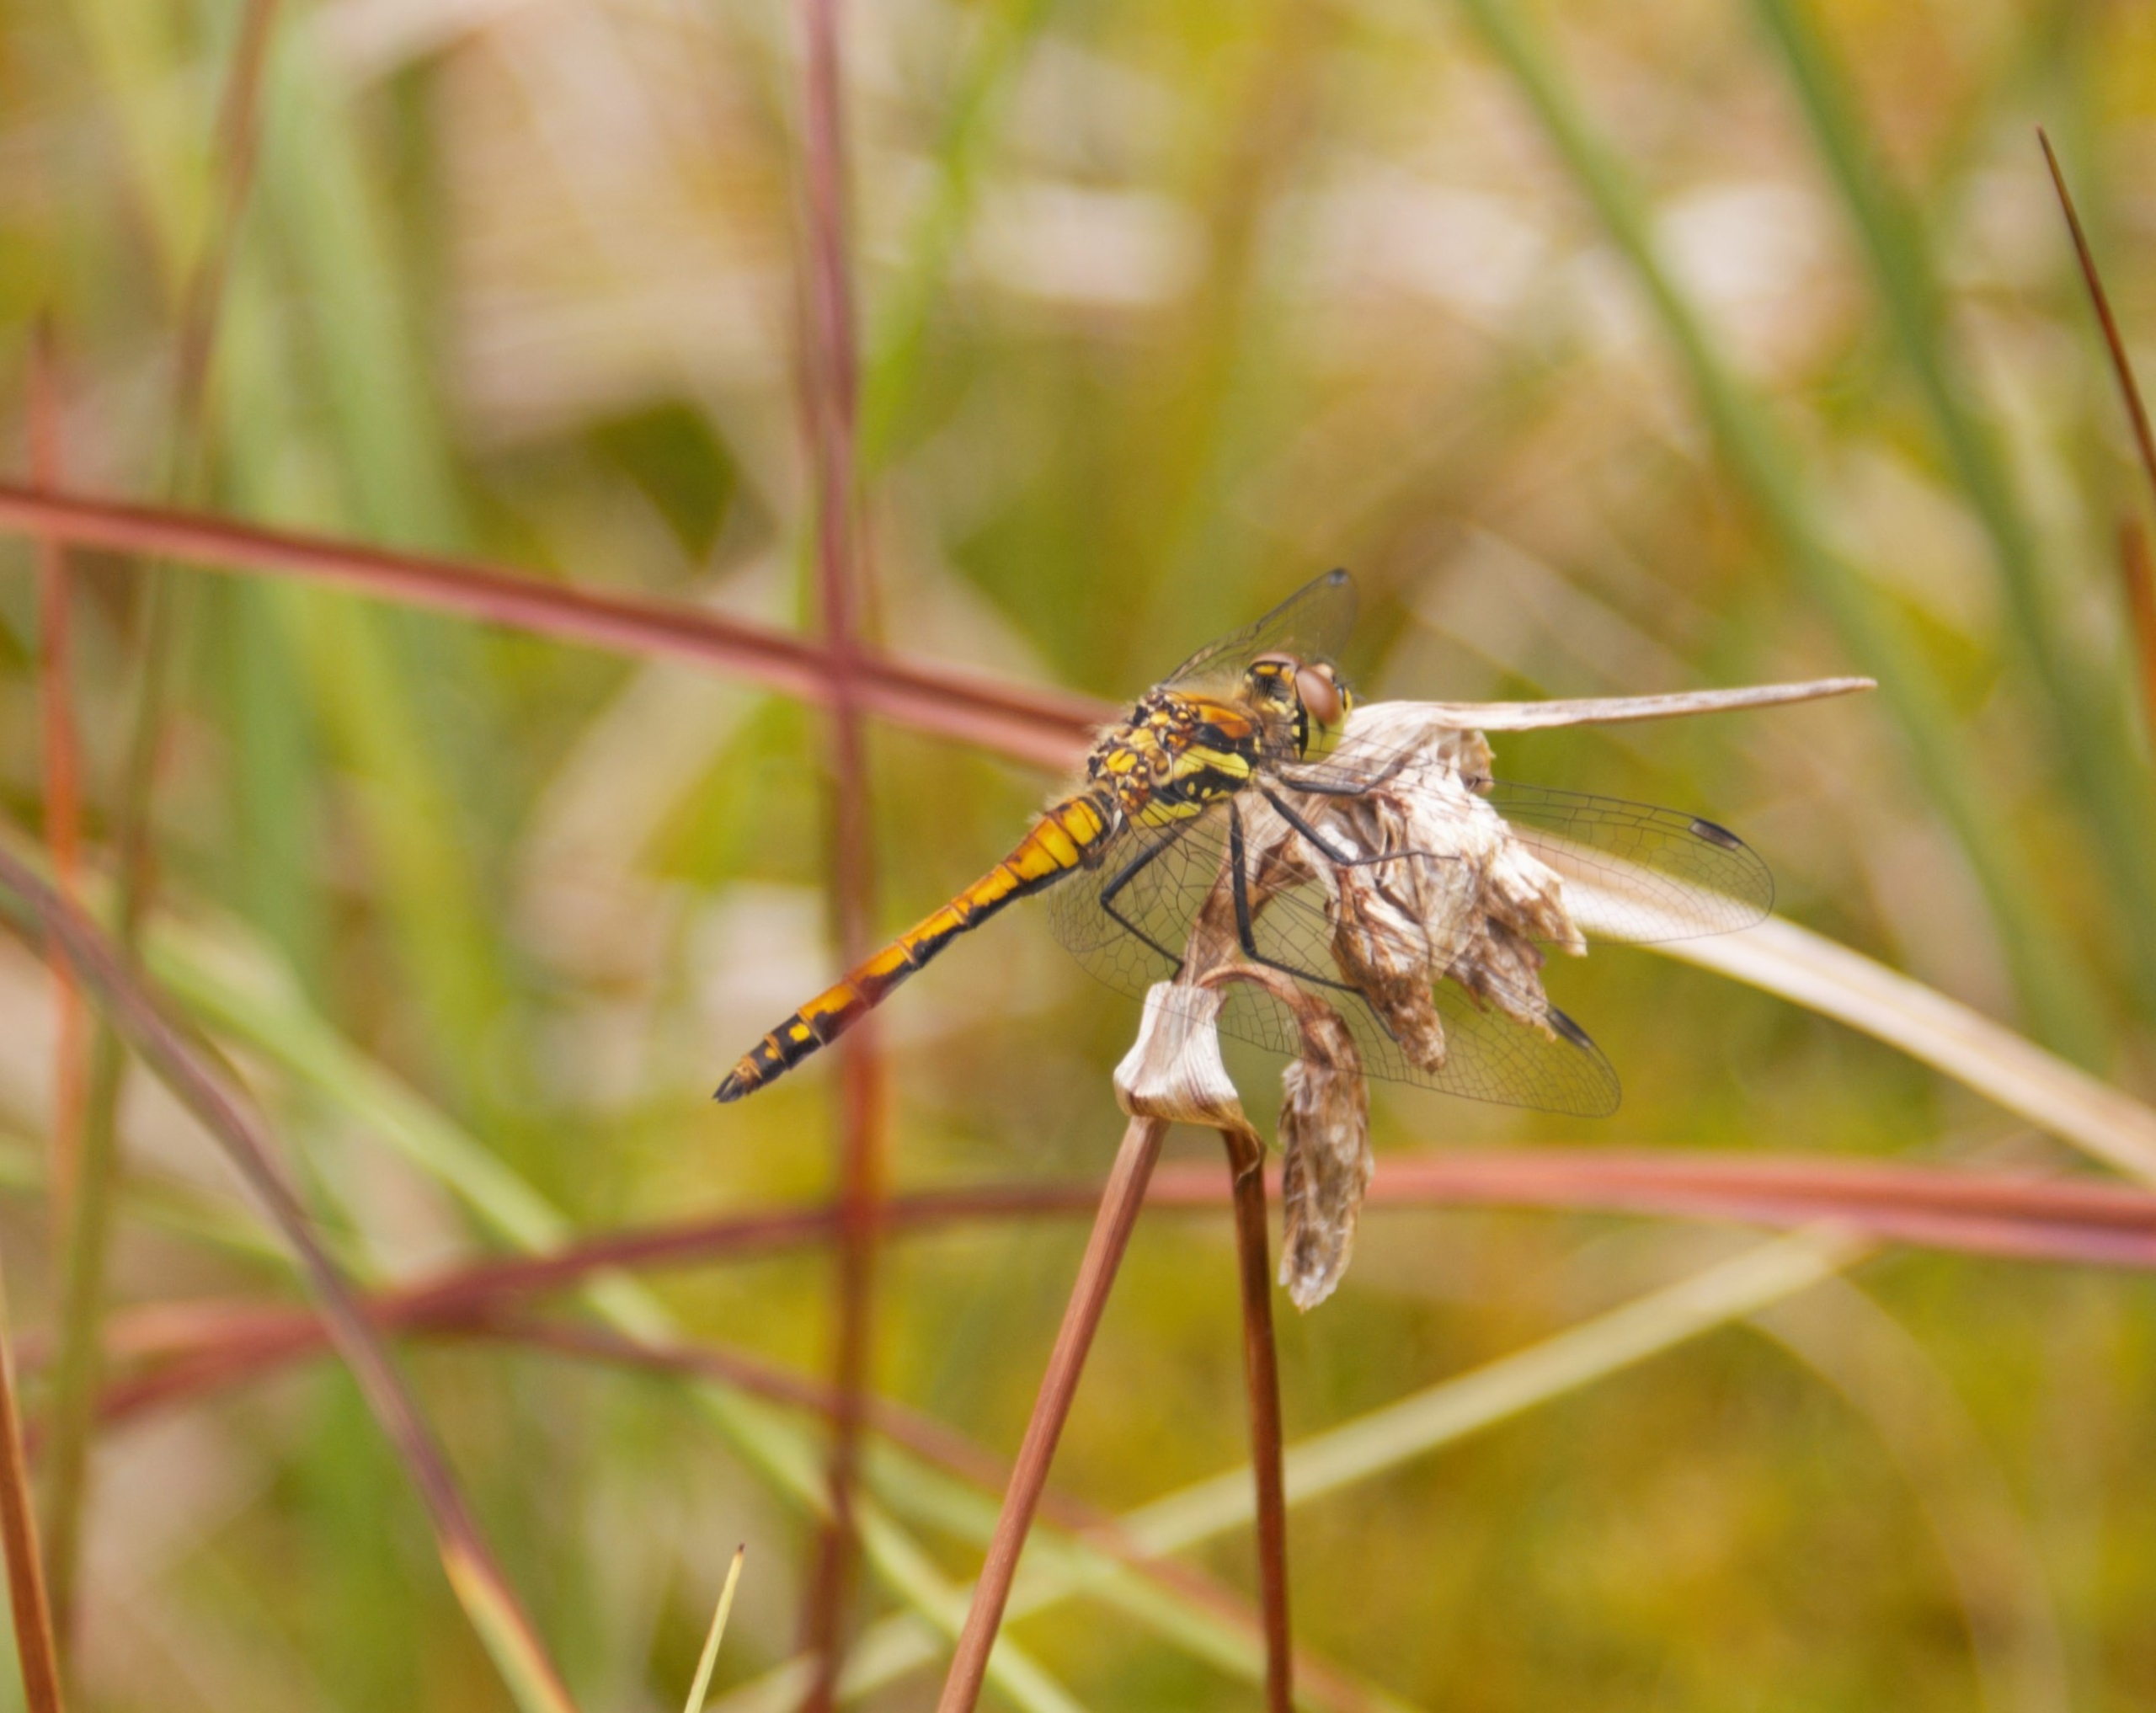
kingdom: Animalia
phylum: Arthropoda
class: Insecta
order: Odonata
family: Libellulidae
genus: Sympetrum
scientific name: Sympetrum danae
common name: Sort hedelibel
